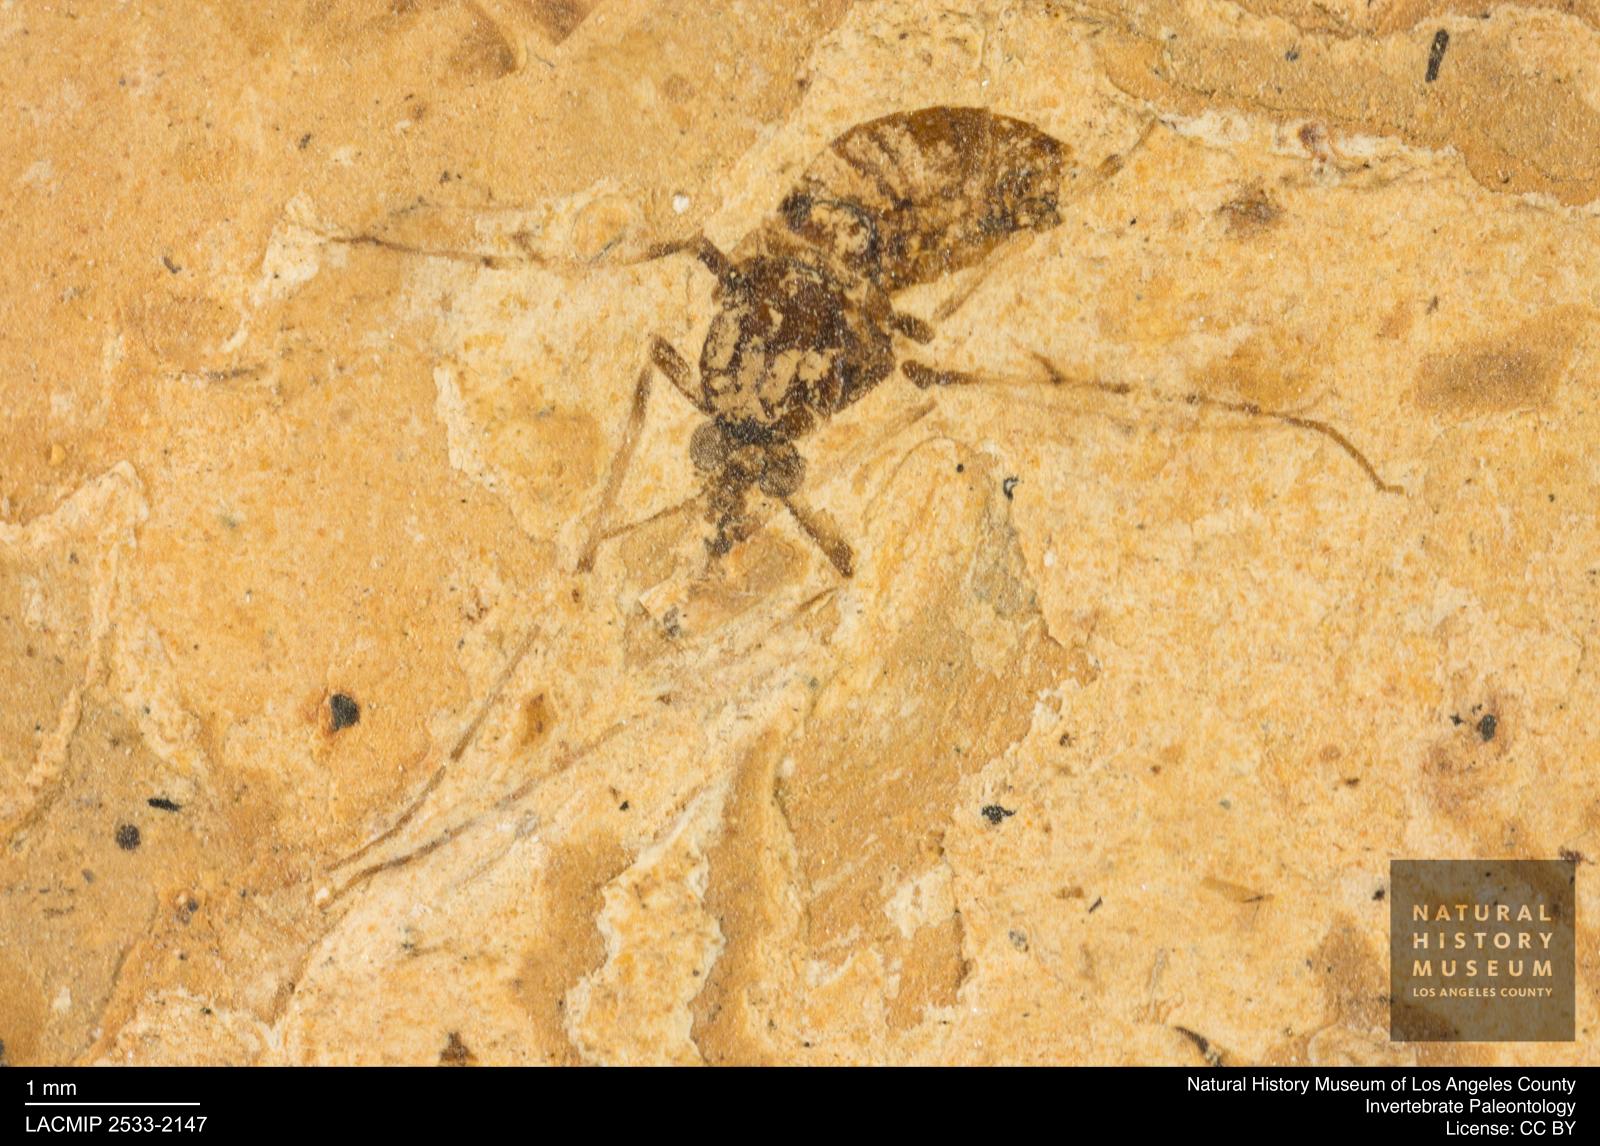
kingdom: Animalia
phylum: Arthropoda
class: Insecta
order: Diptera
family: Chironomidae
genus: Tanypus
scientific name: Tanypus dorminans
